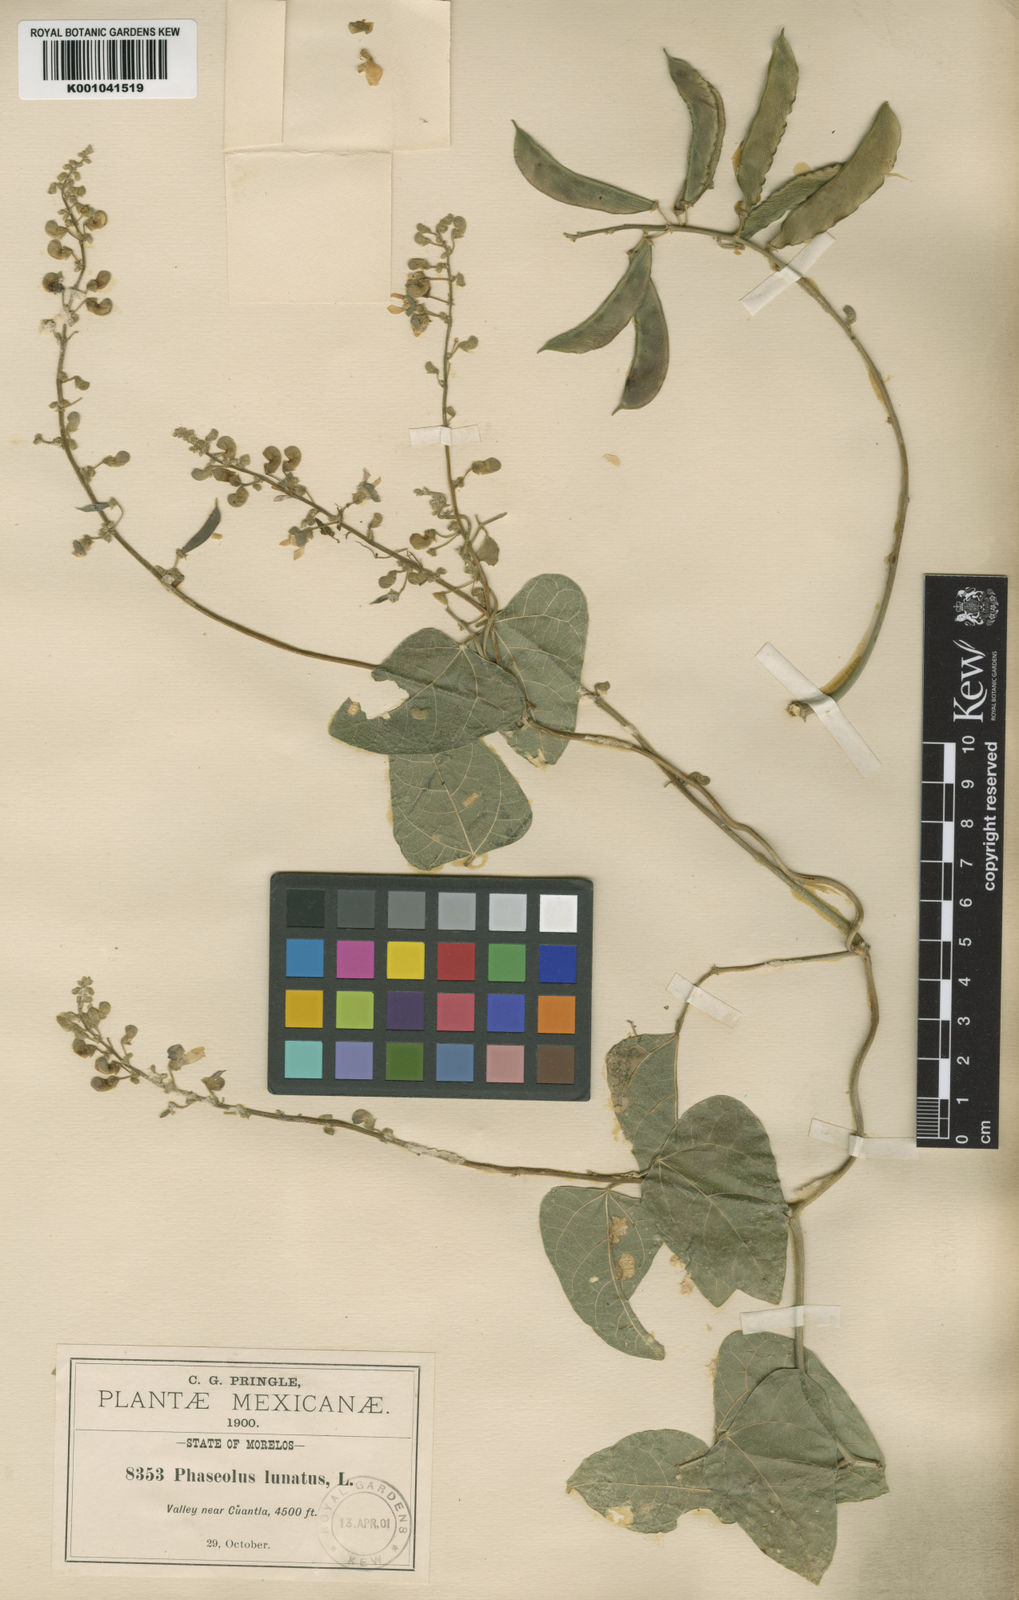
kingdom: Plantae
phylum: Tracheophyta
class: Magnoliopsida
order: Fabales
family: Fabaceae
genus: Phaseolus
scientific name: Phaseolus lunatus
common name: Sieva bean
